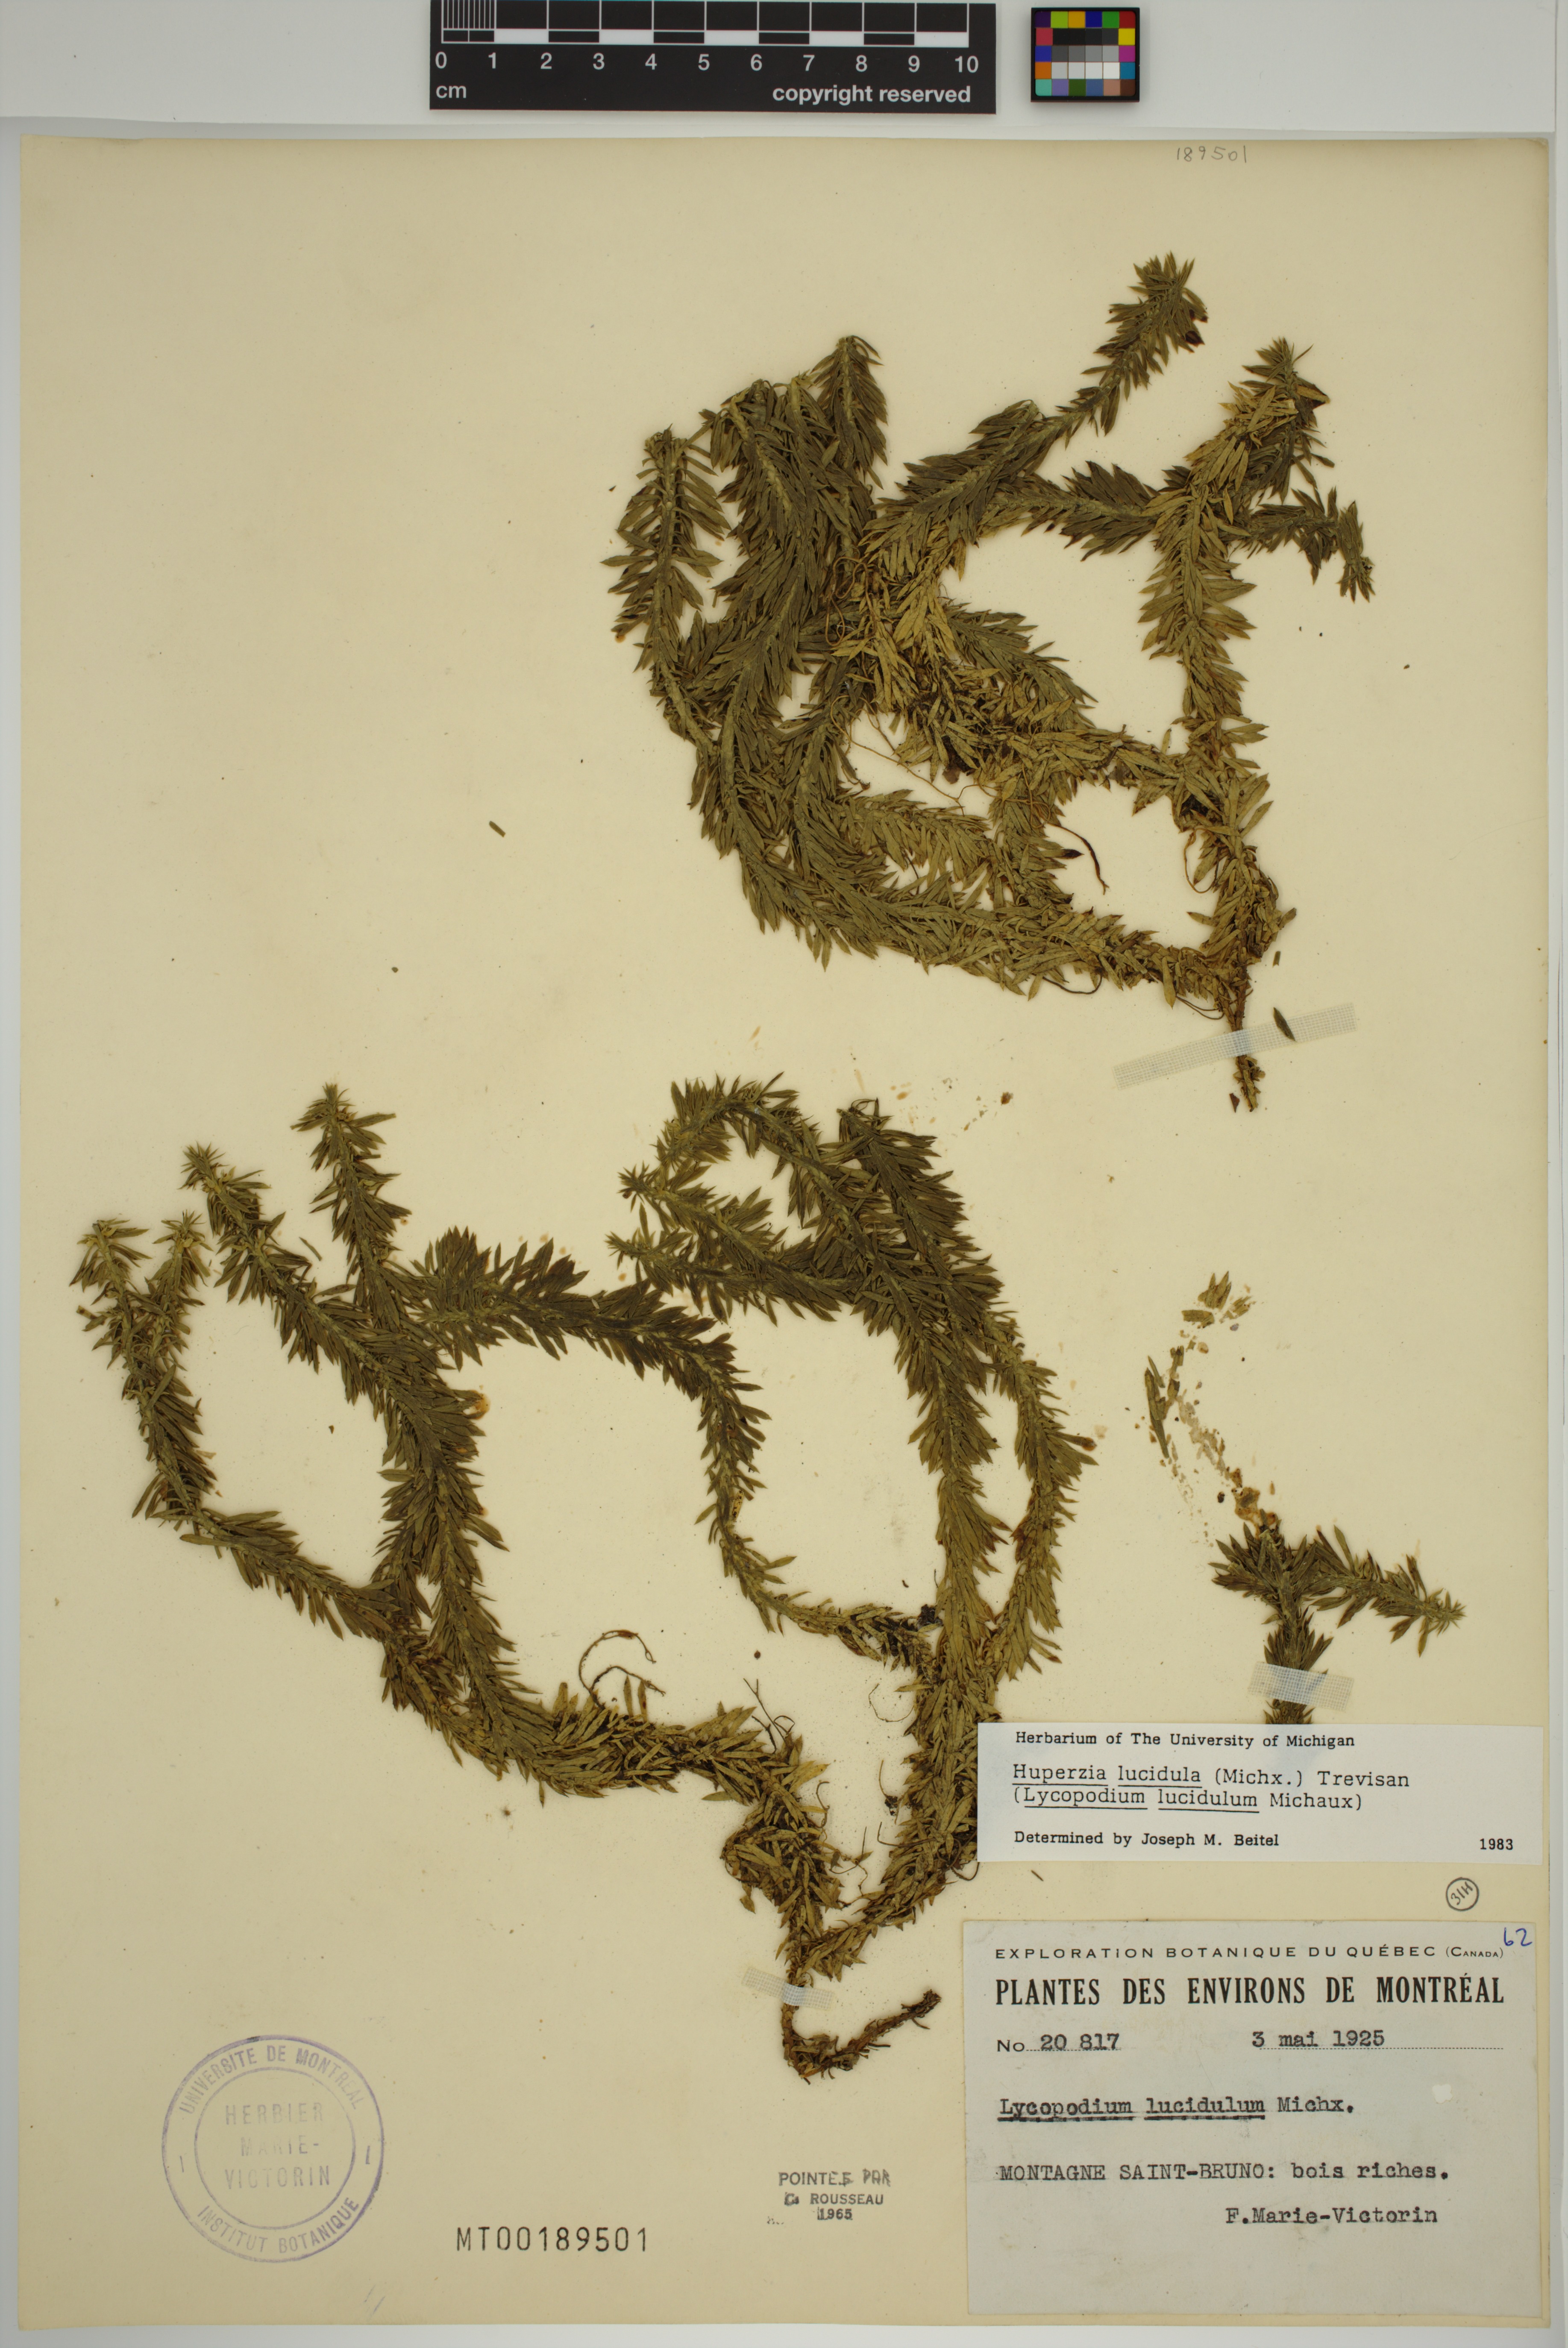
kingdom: Plantae
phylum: Tracheophyta
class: Lycopodiopsida
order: Lycopodiales
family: Lycopodiaceae
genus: Huperzia
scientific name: Huperzia lucidula
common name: Shining clubmoss
